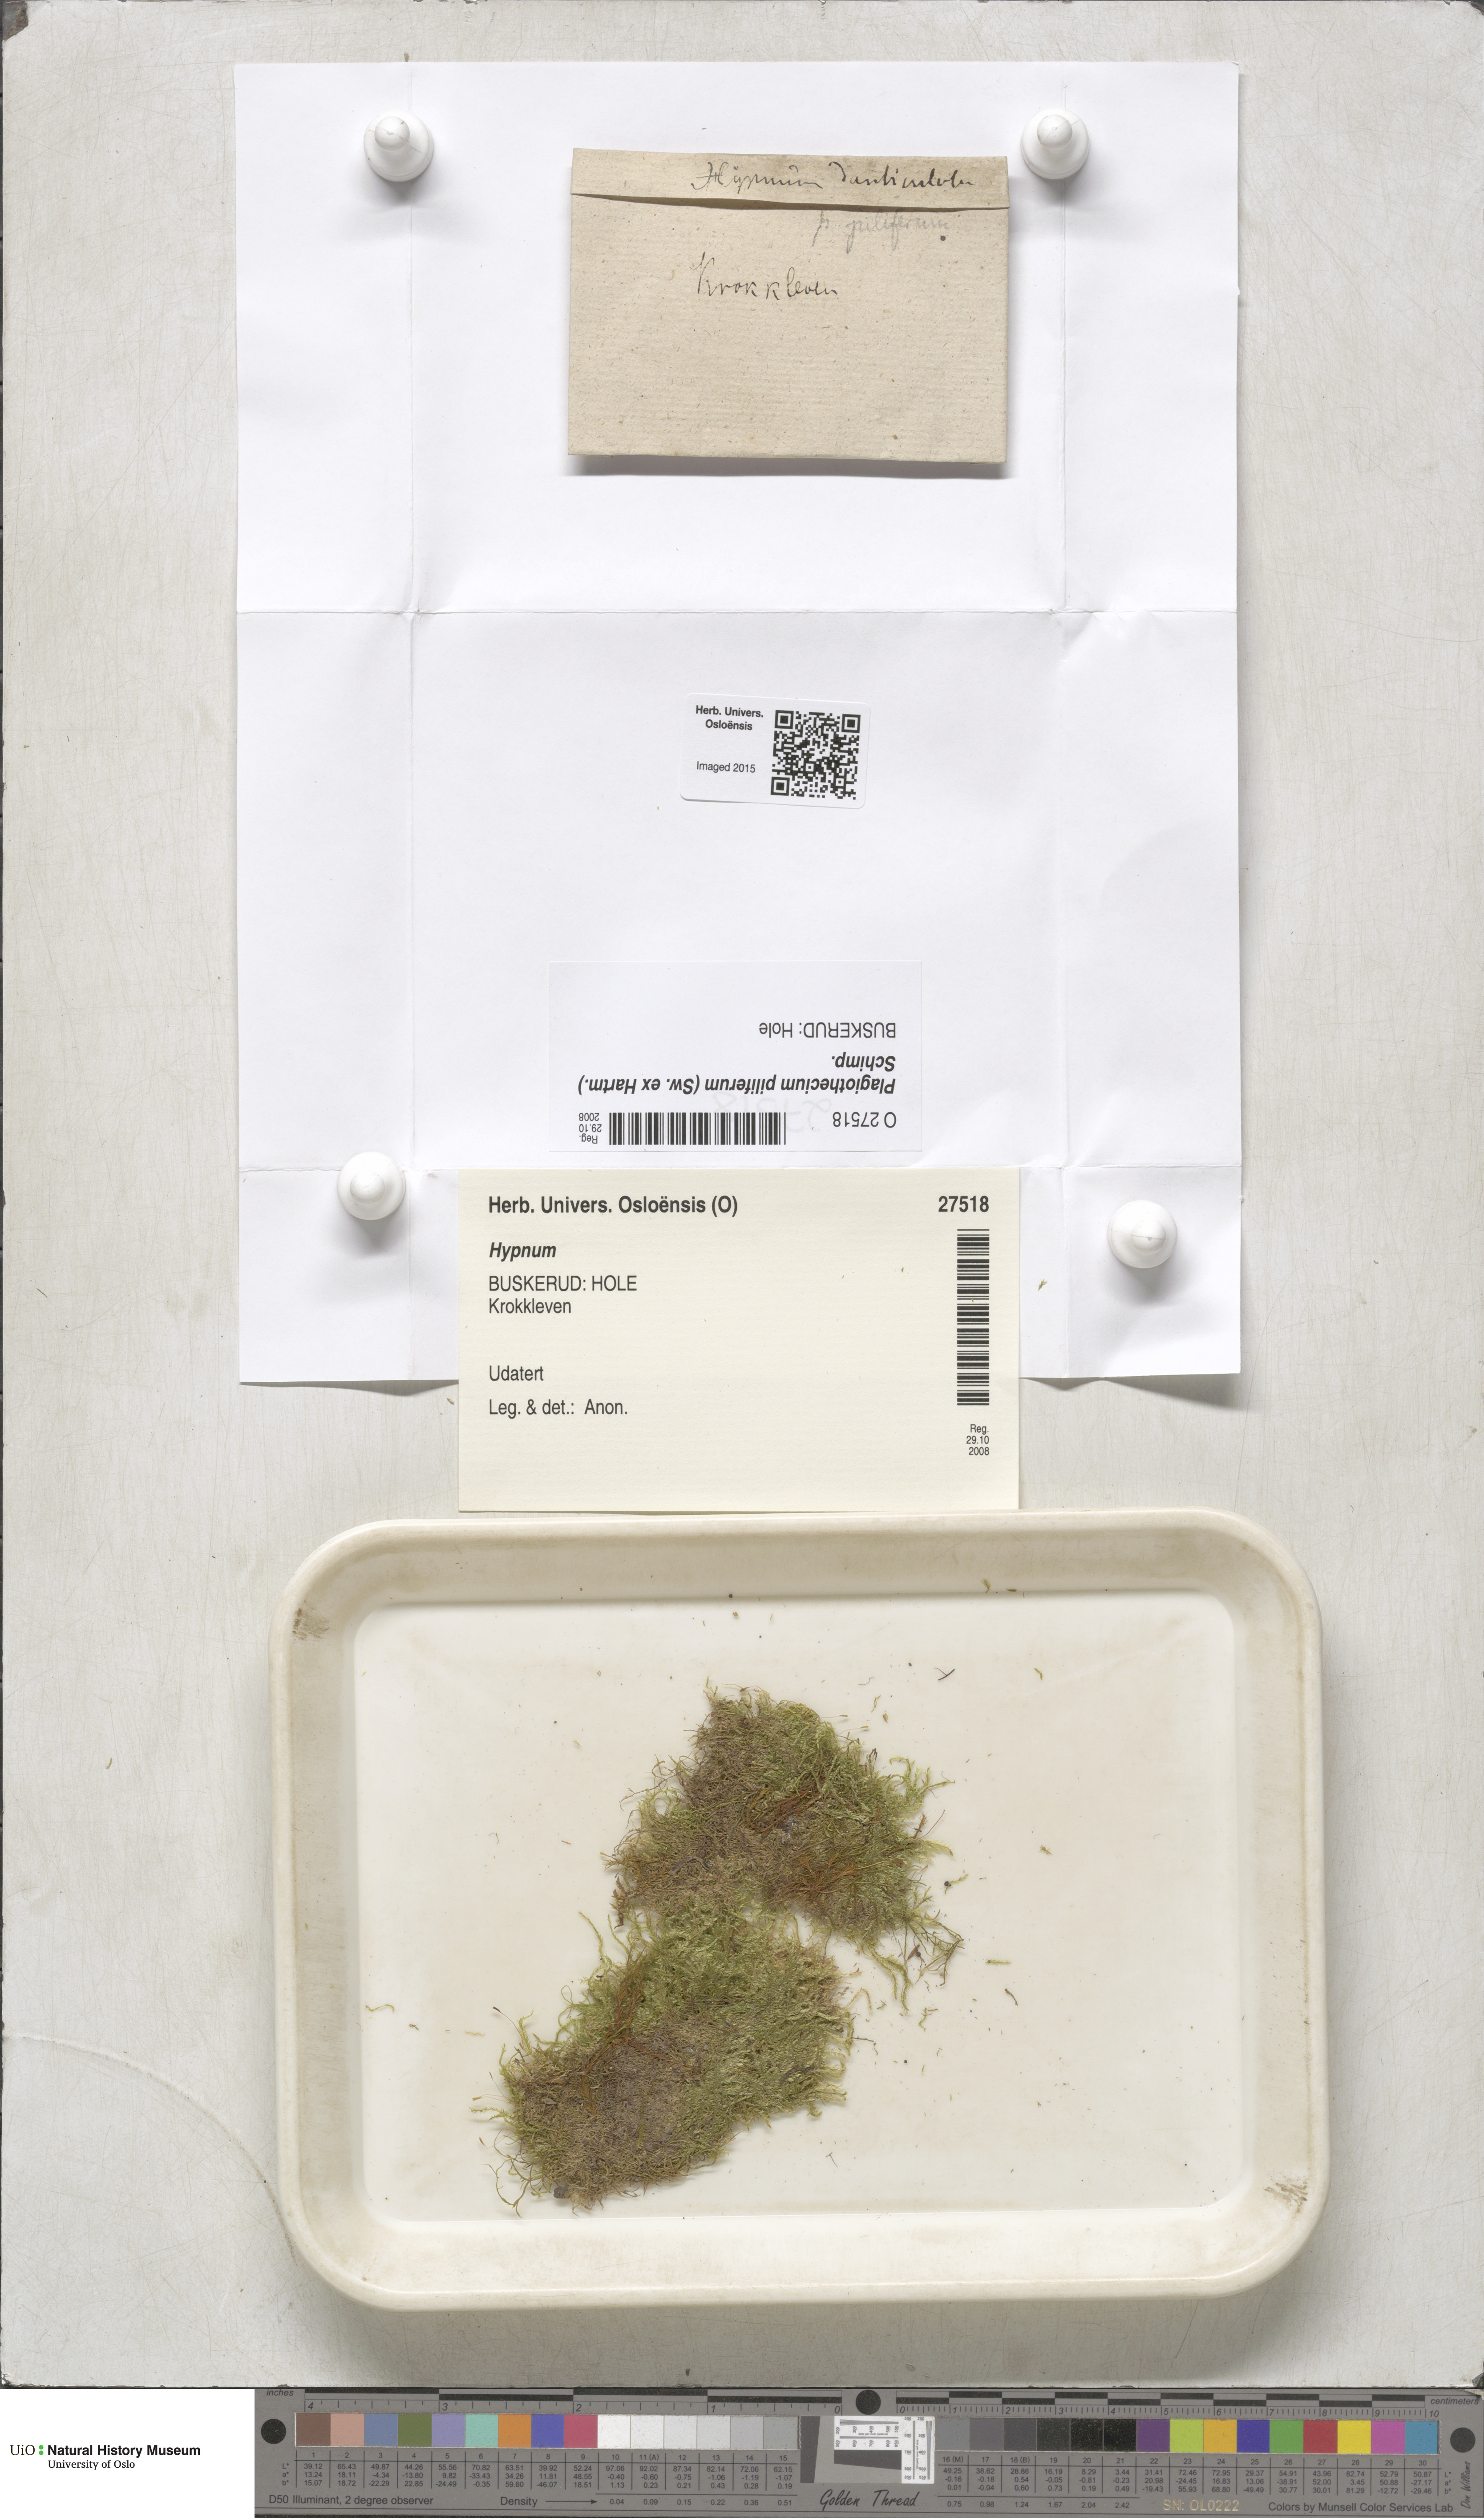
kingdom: Plantae
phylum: Bryophyta
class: Bryopsida
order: Hypnales
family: Plagiotheciaceae
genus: Rectithecium
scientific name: Rectithecium piliferum
